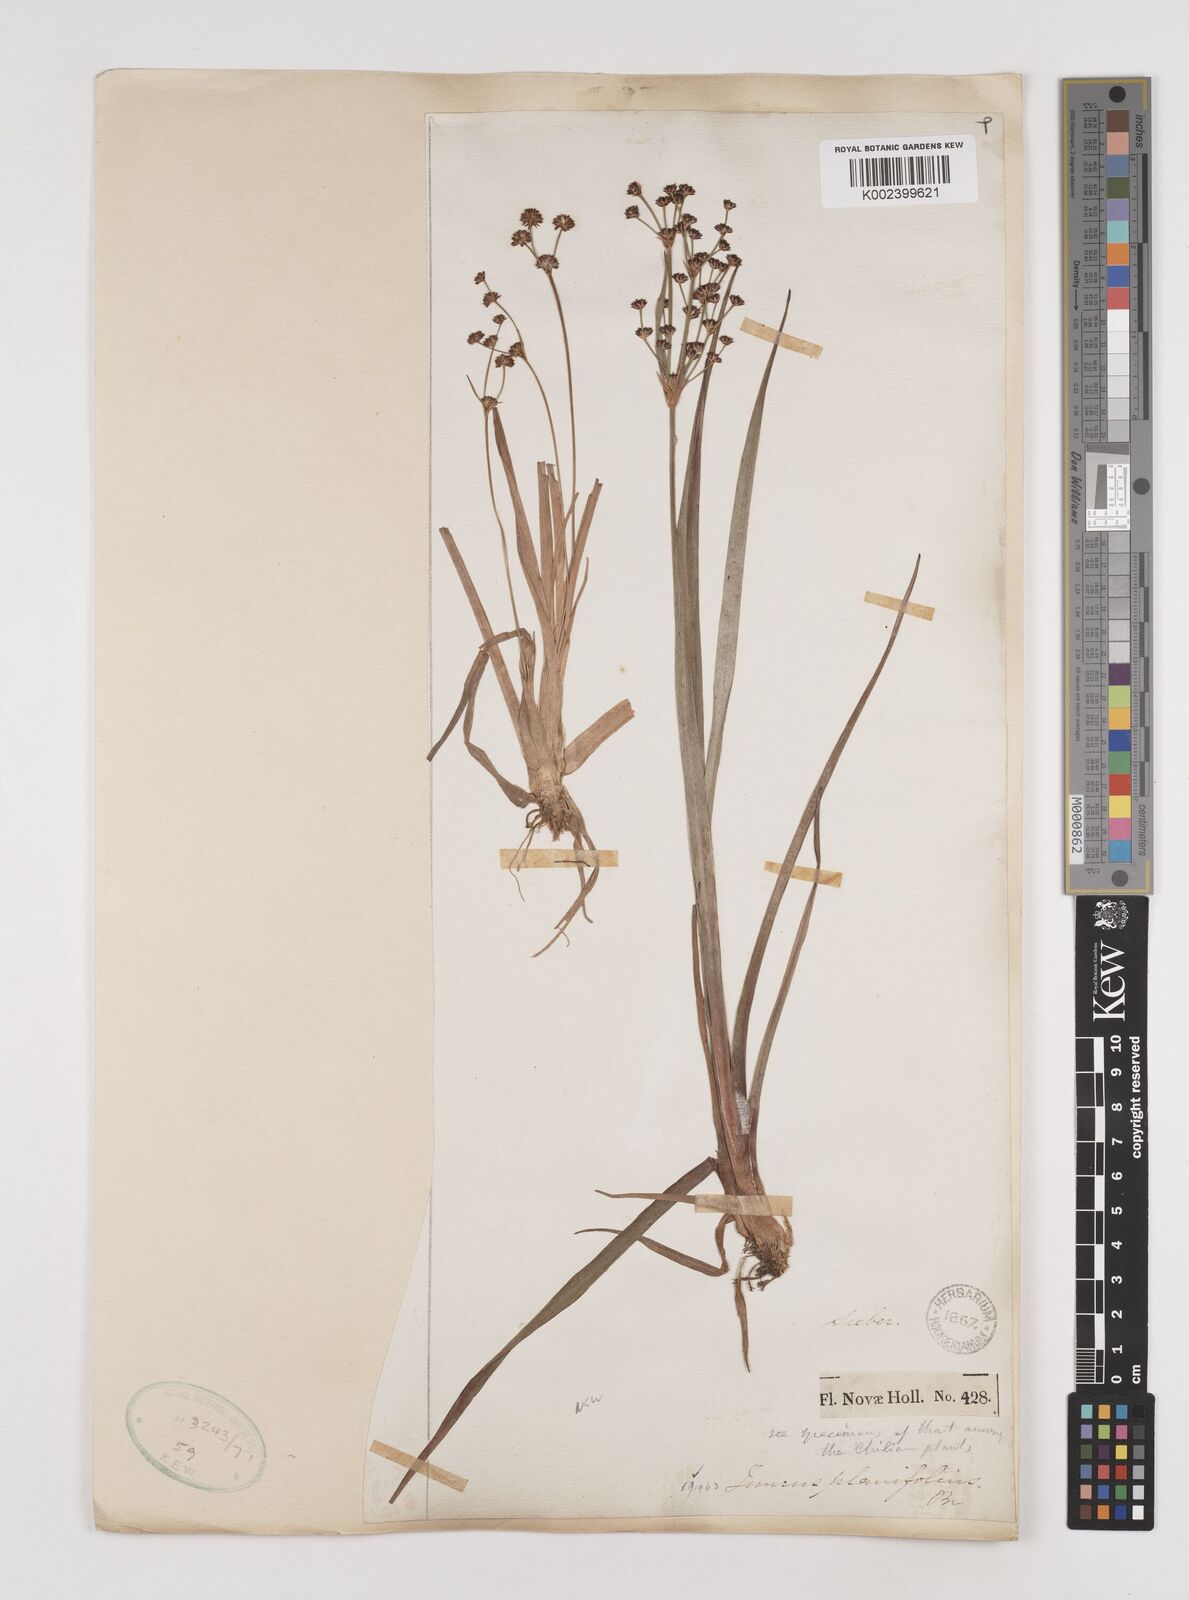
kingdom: Plantae
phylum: Tracheophyta
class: Liliopsida
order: Poales
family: Juncaceae
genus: Juncus
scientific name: Juncus planifolius
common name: Broadleaf rush
